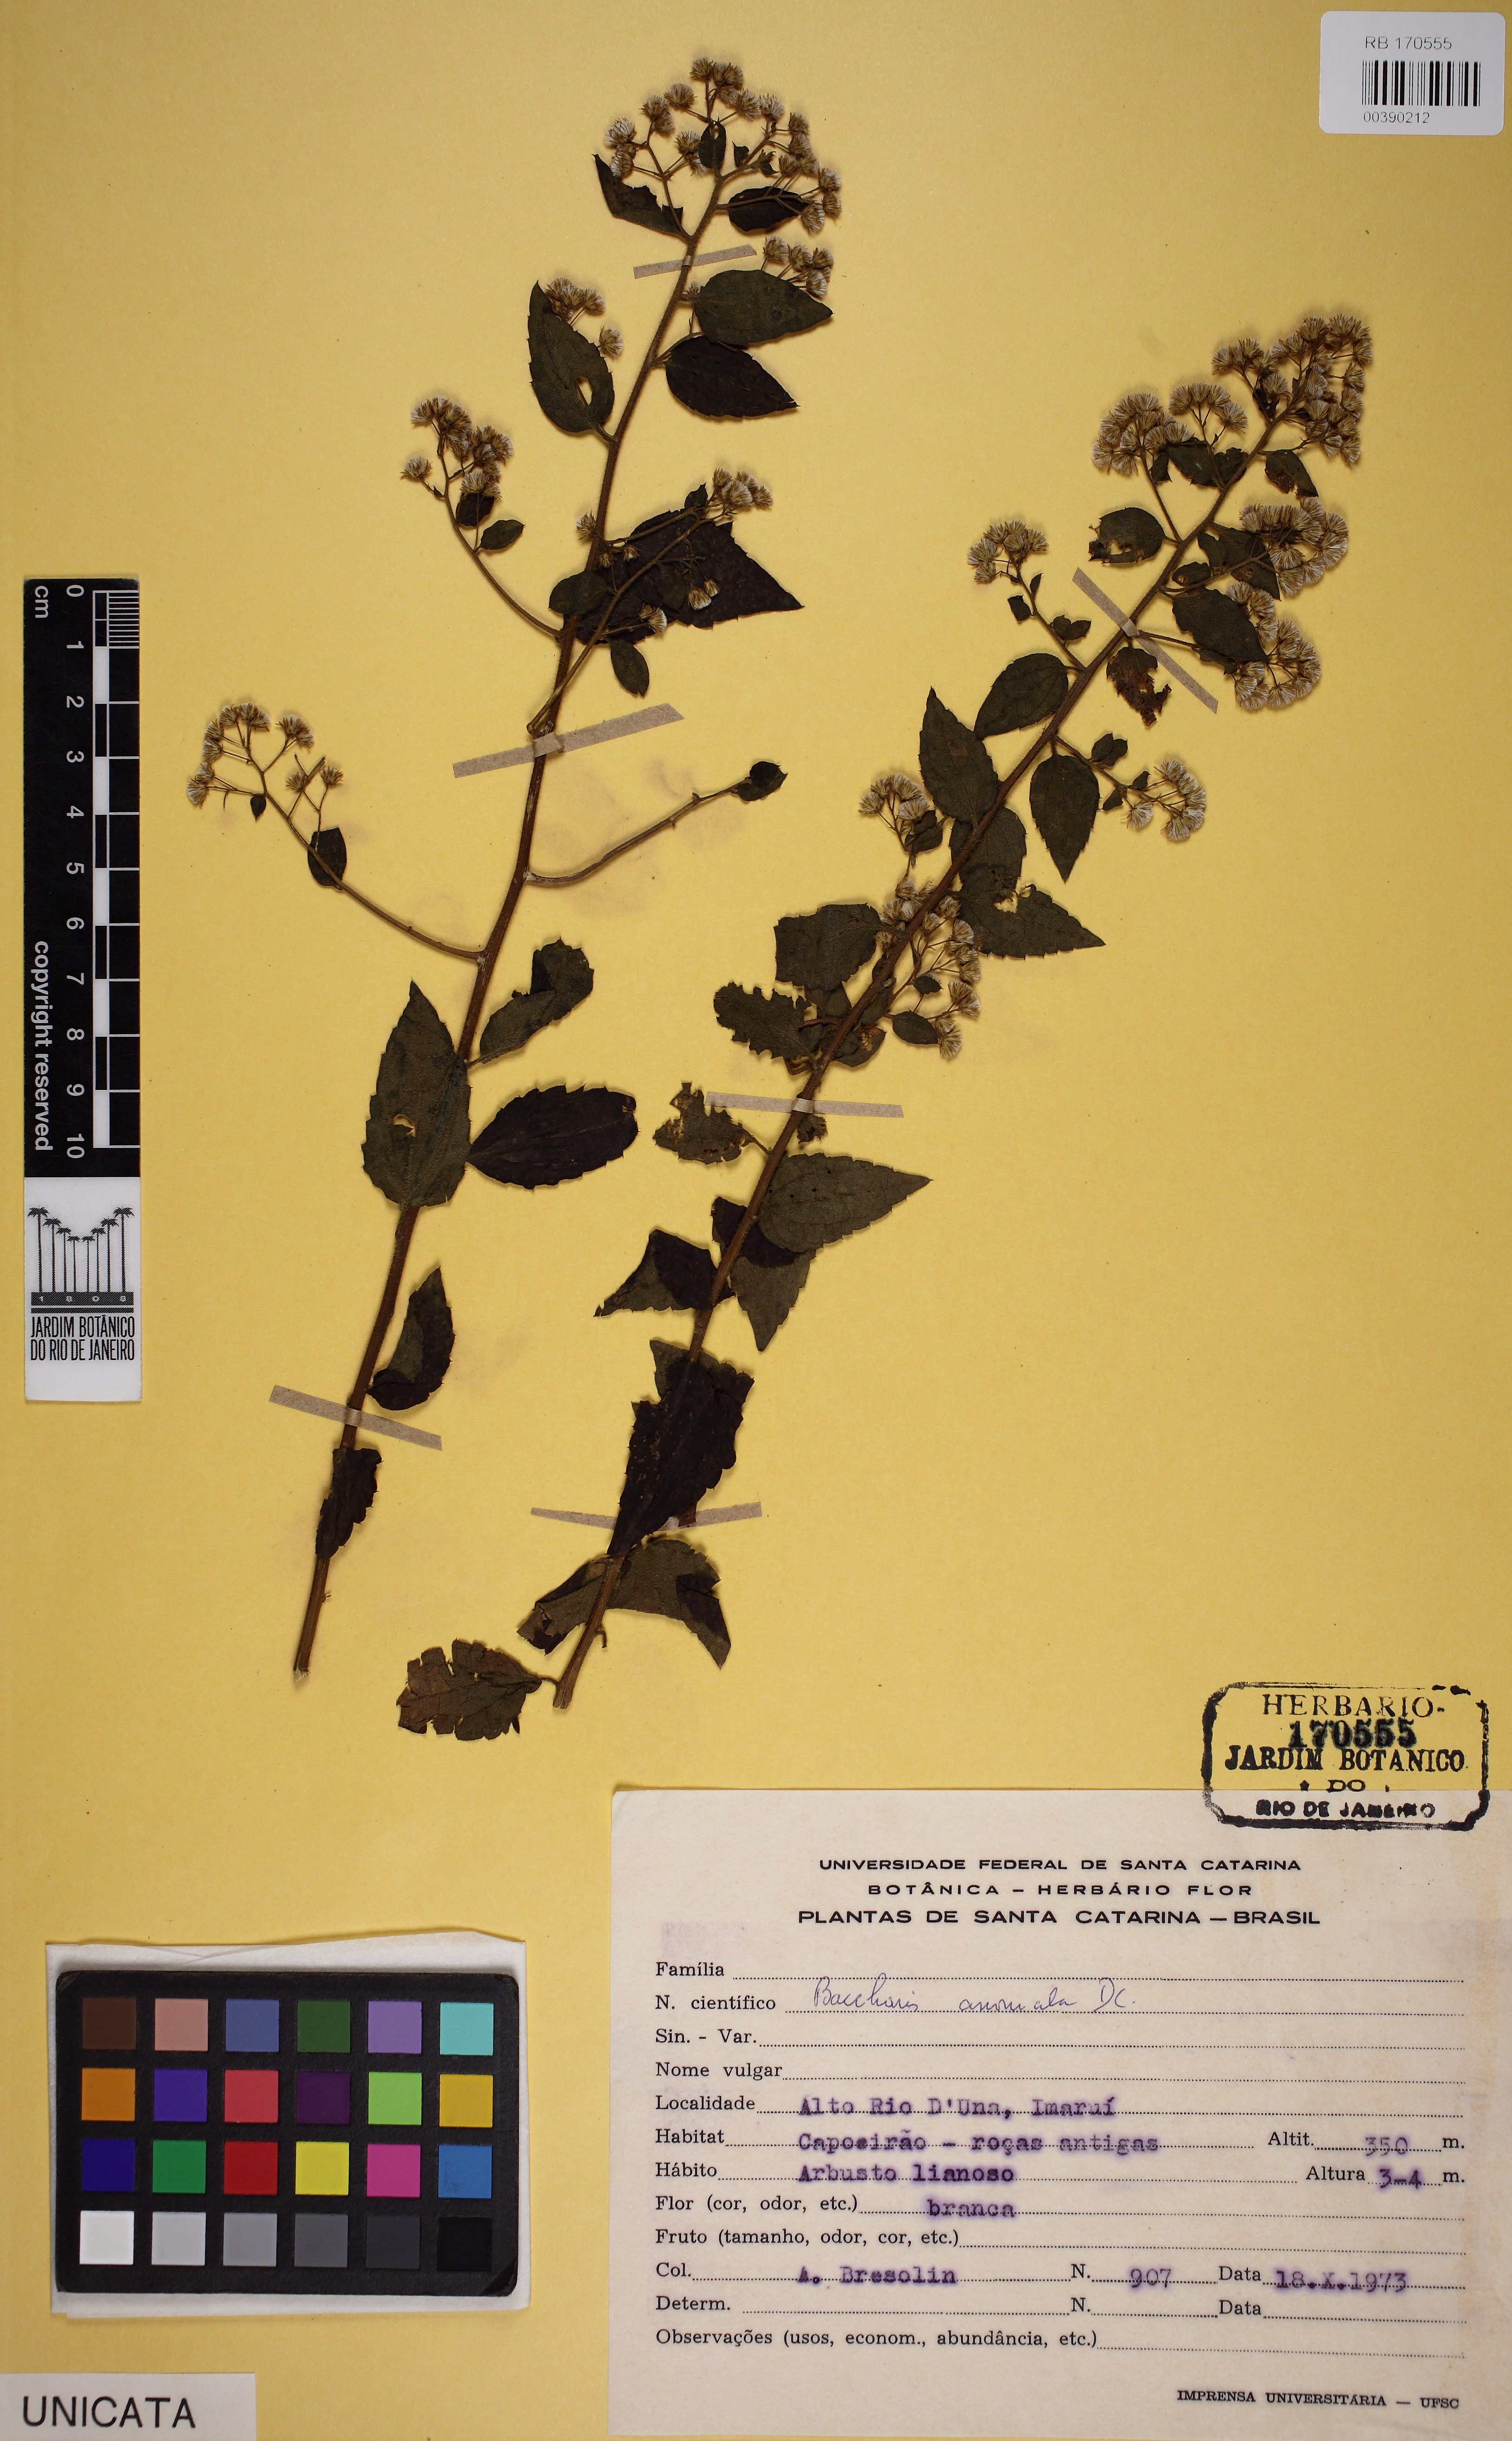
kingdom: Plantae
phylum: Tracheophyta
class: Magnoliopsida
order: Asterales
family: Asteraceae
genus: Baccharis
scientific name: Baccharis anomala
